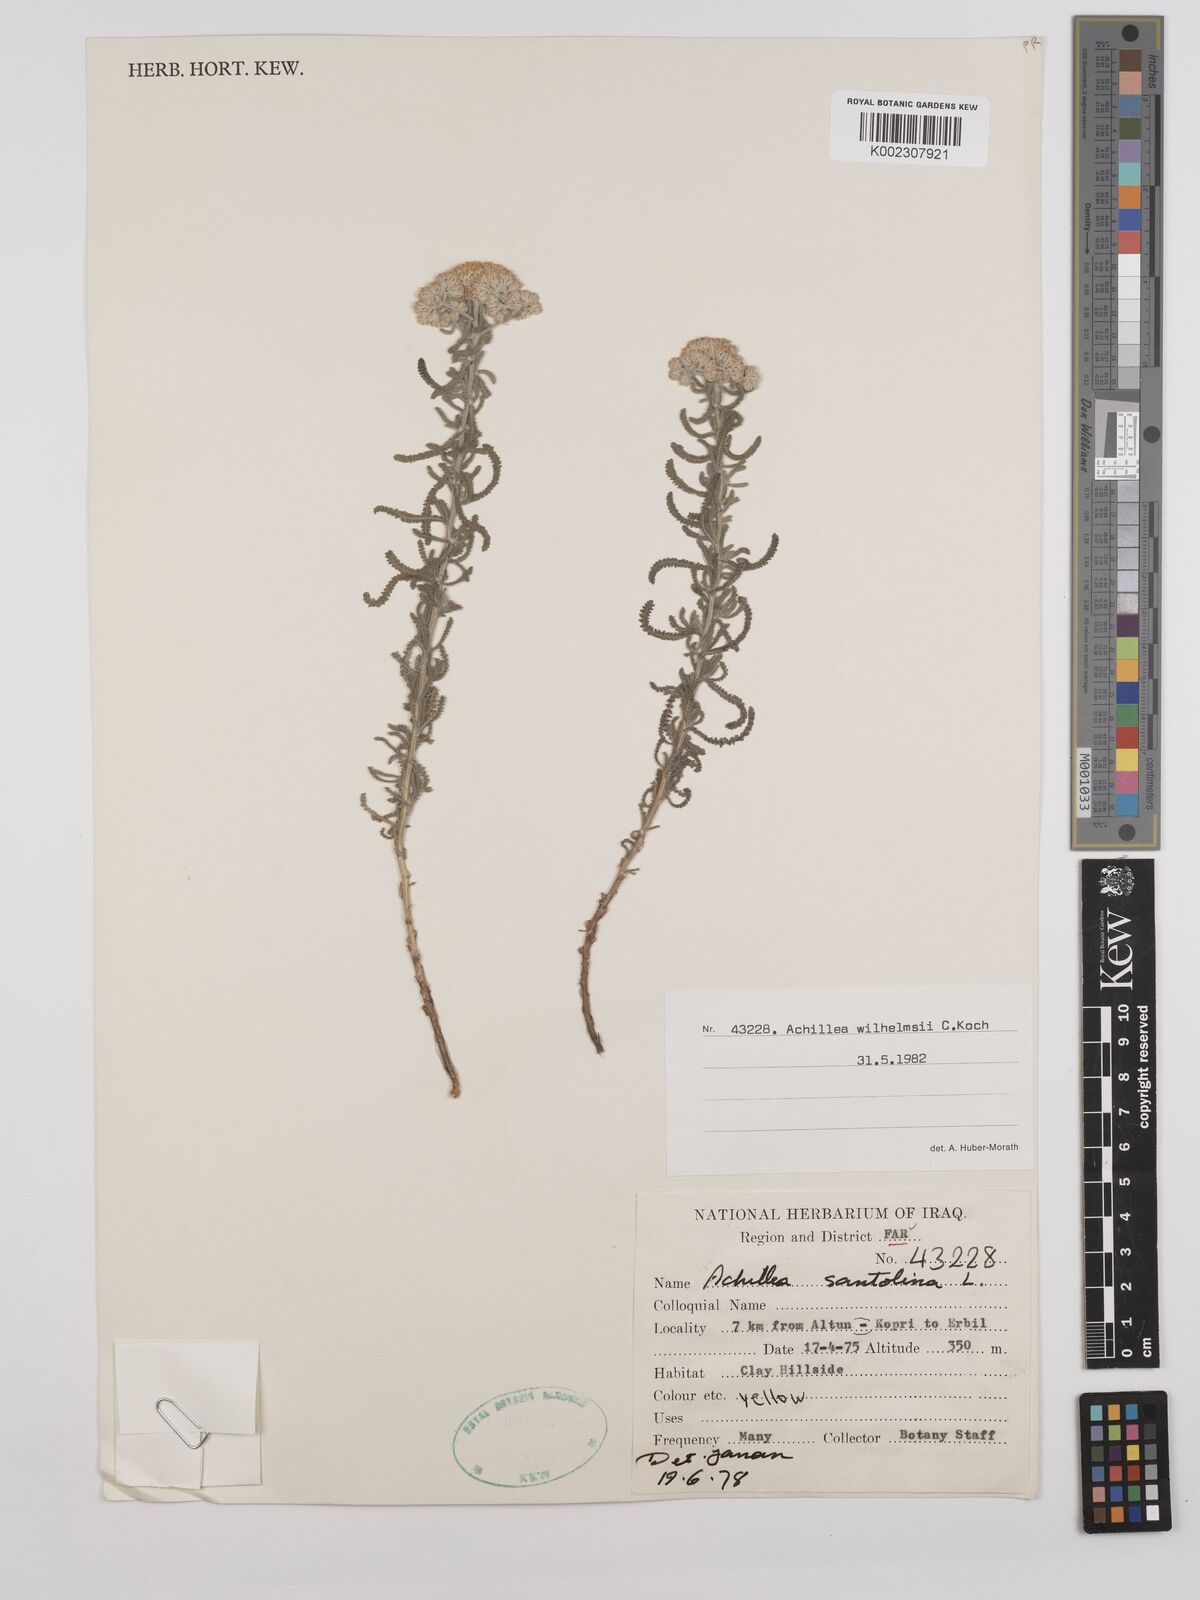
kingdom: Plantae
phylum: Tracheophyta
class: Magnoliopsida
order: Asterales
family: Asteraceae
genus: Achillea
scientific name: Achillea wilhelmsii
